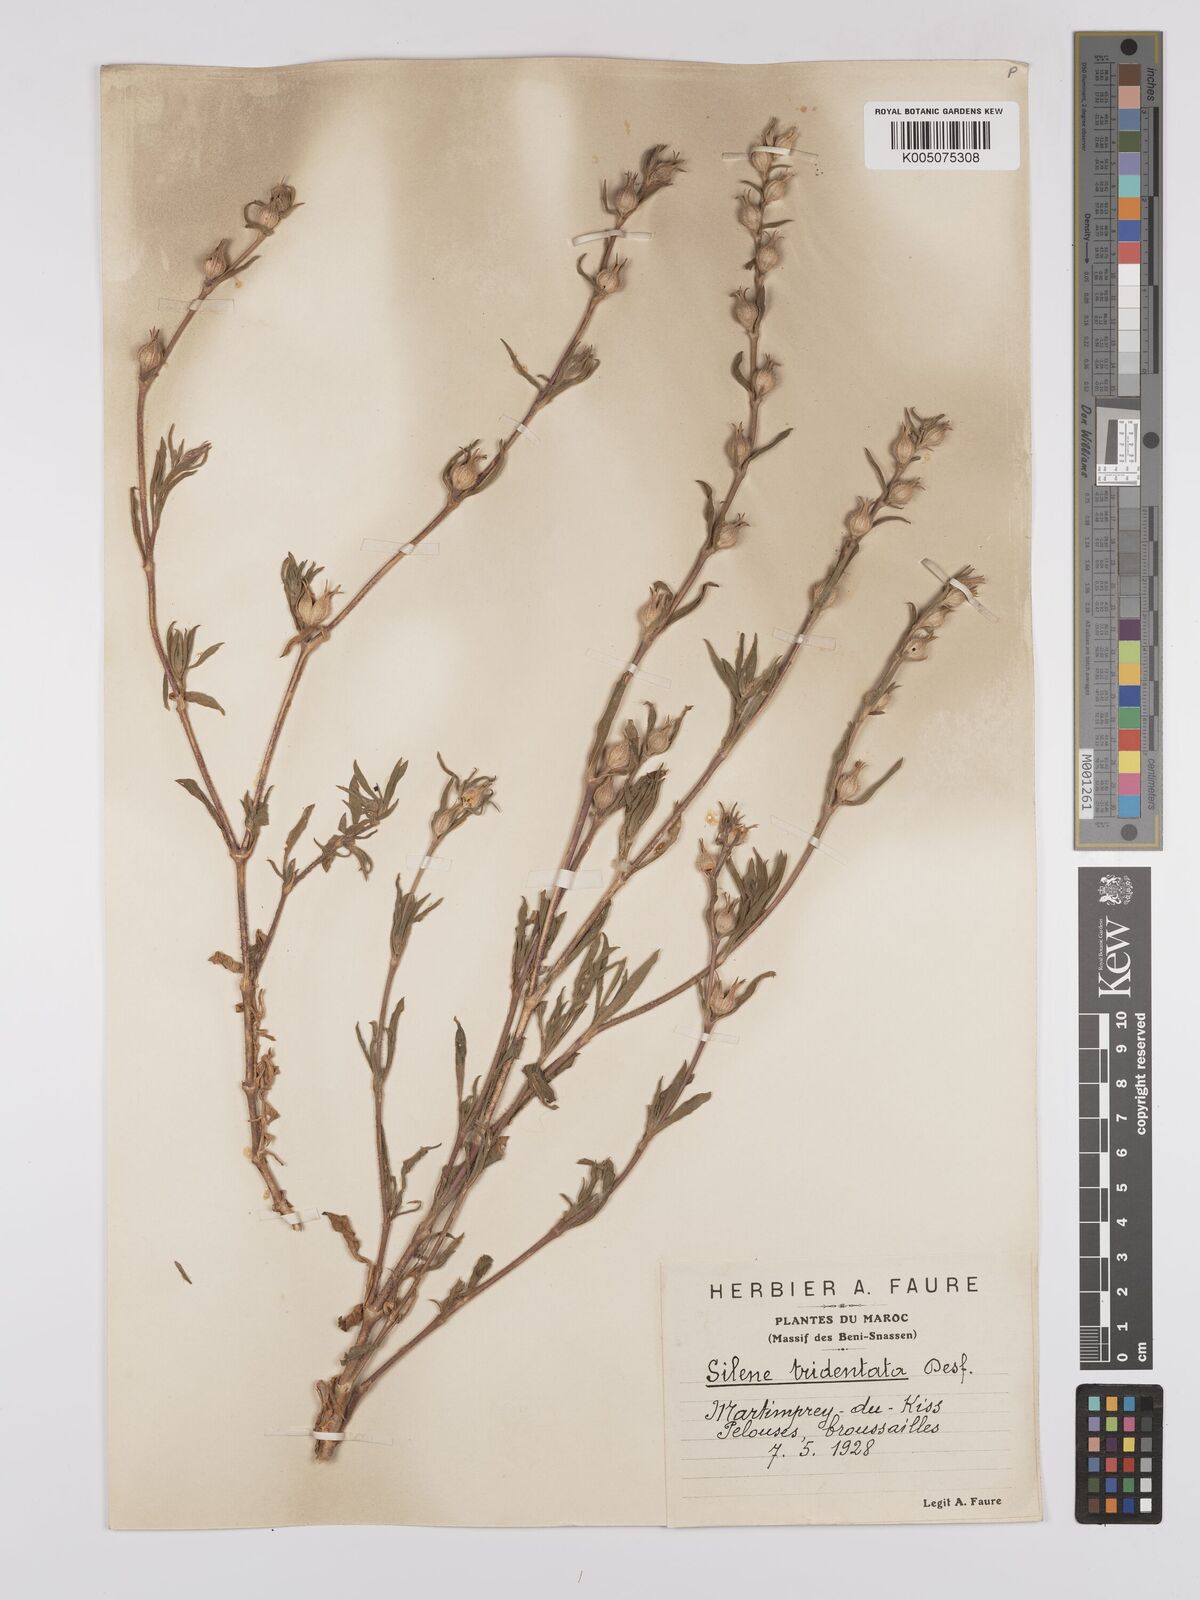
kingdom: Plantae
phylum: Tracheophyta
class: Magnoliopsida
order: Caryophyllales
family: Caryophyllaceae
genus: Silene
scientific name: Silene tridentata
